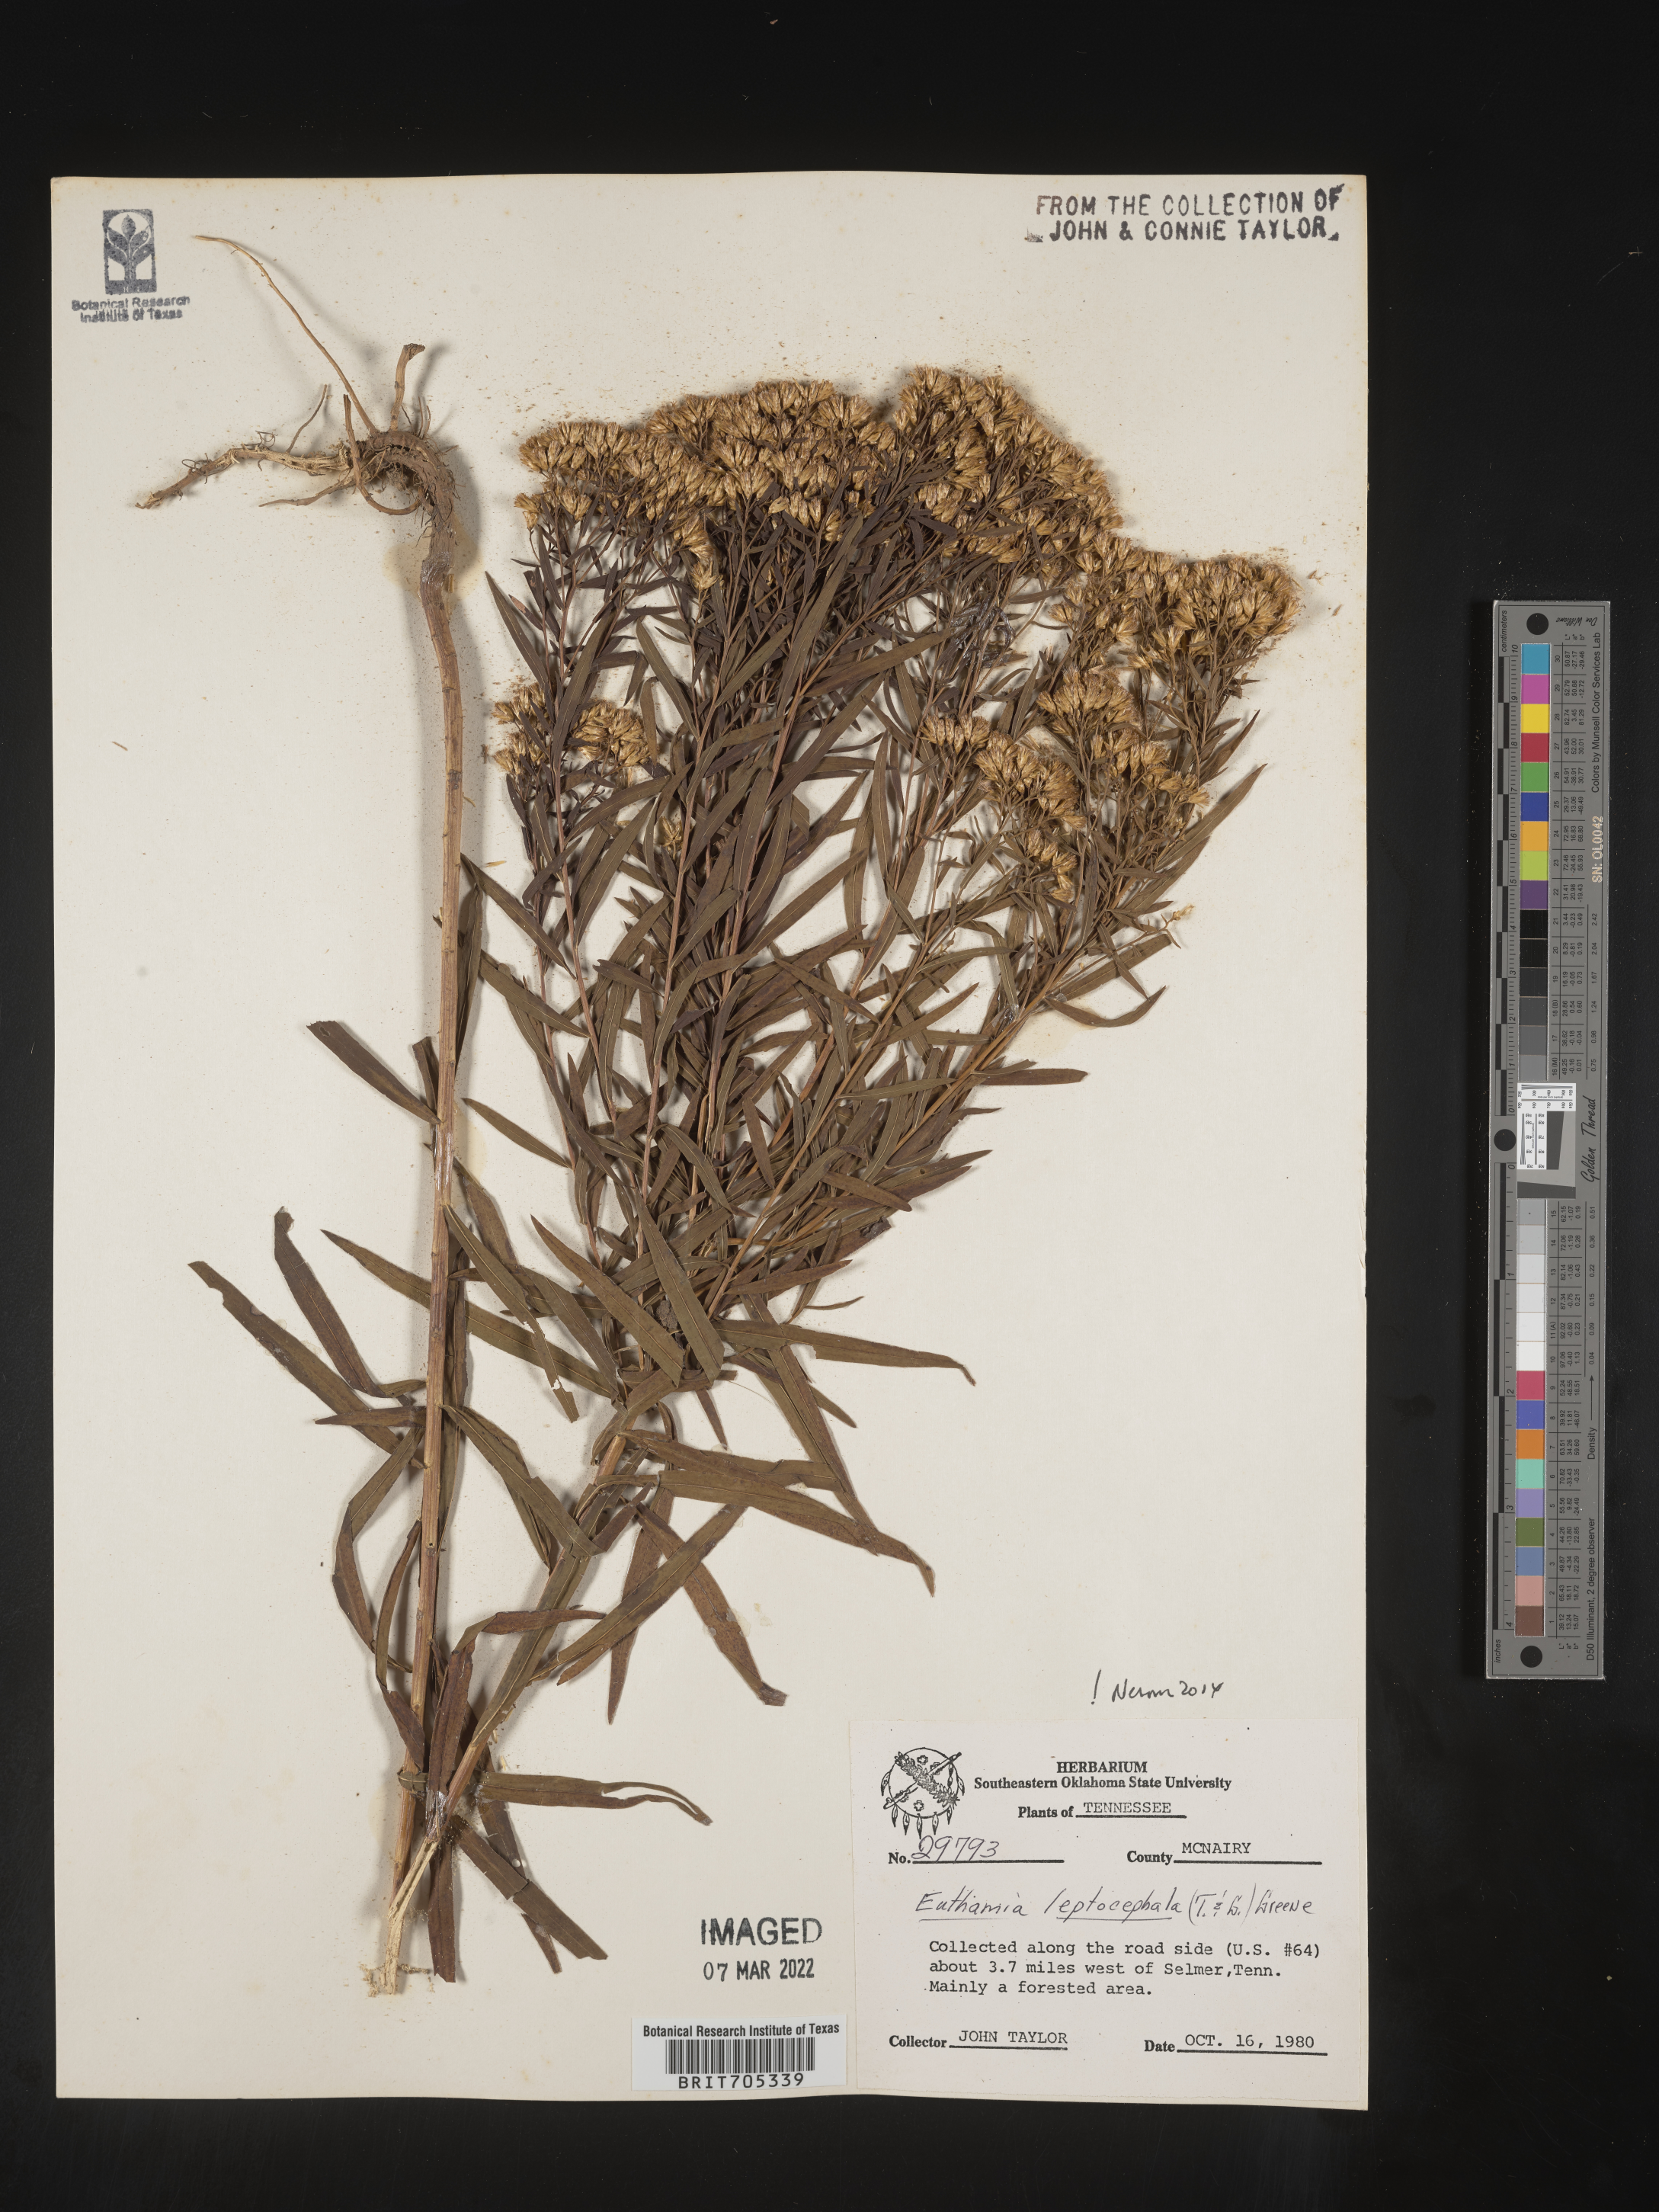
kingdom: Plantae
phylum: Tracheophyta
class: Magnoliopsida
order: Asterales
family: Asteraceae
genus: Euthamia
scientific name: Euthamia leptocephala
